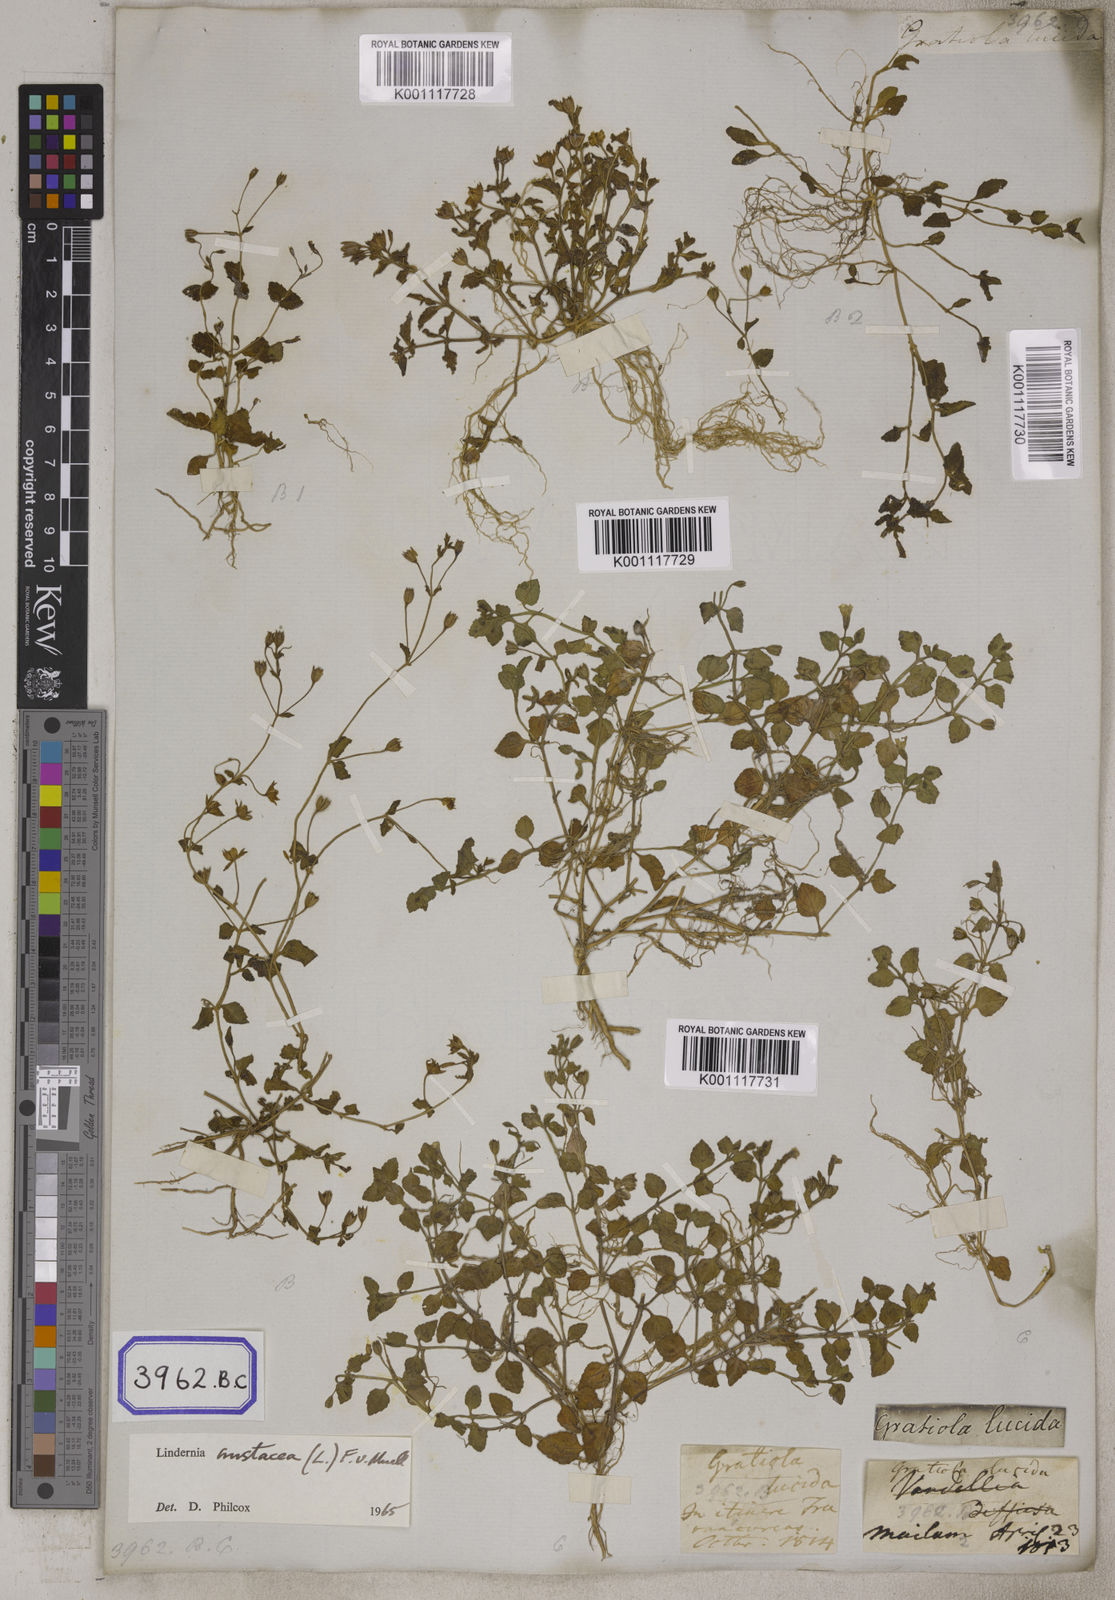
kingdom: Plantae
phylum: Tracheophyta
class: Magnoliopsida
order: Lamiales
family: Linderniaceae
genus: Torenia
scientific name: Torenia crustacea
